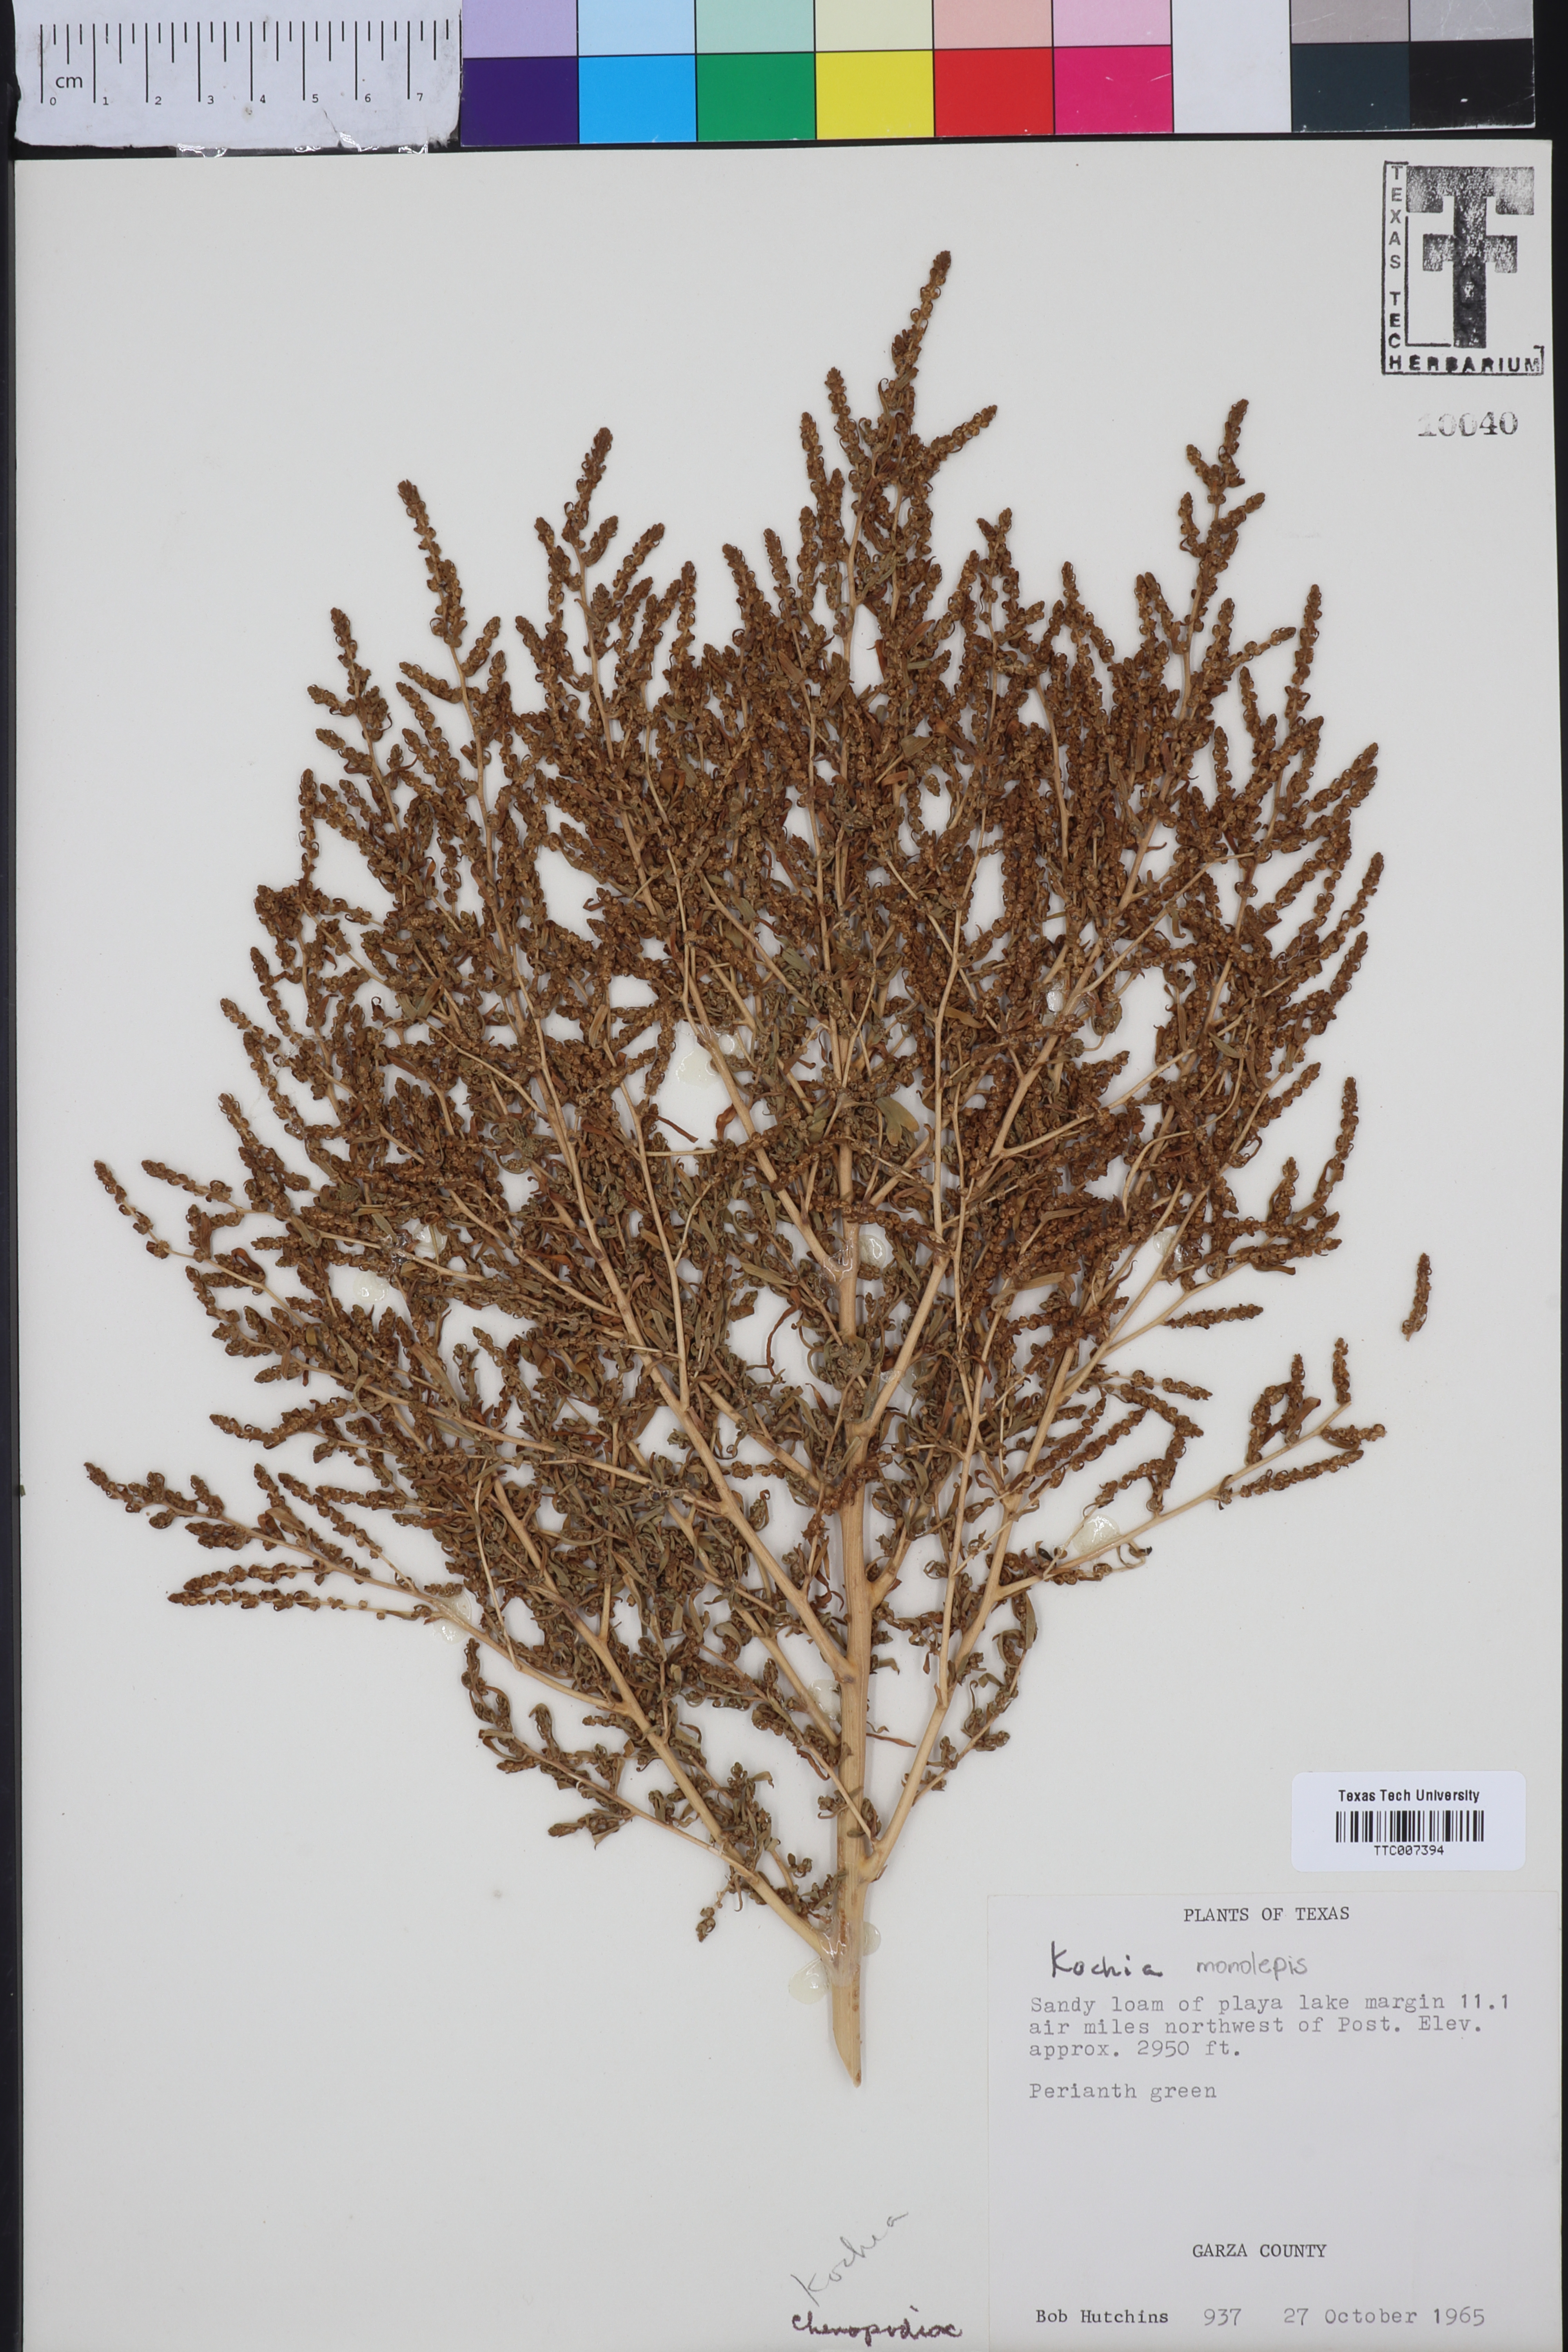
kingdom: Plantae
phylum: Tracheophyta
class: Magnoliopsida
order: Caryophyllales
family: Amaranthaceae
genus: Bassia
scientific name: Bassia
